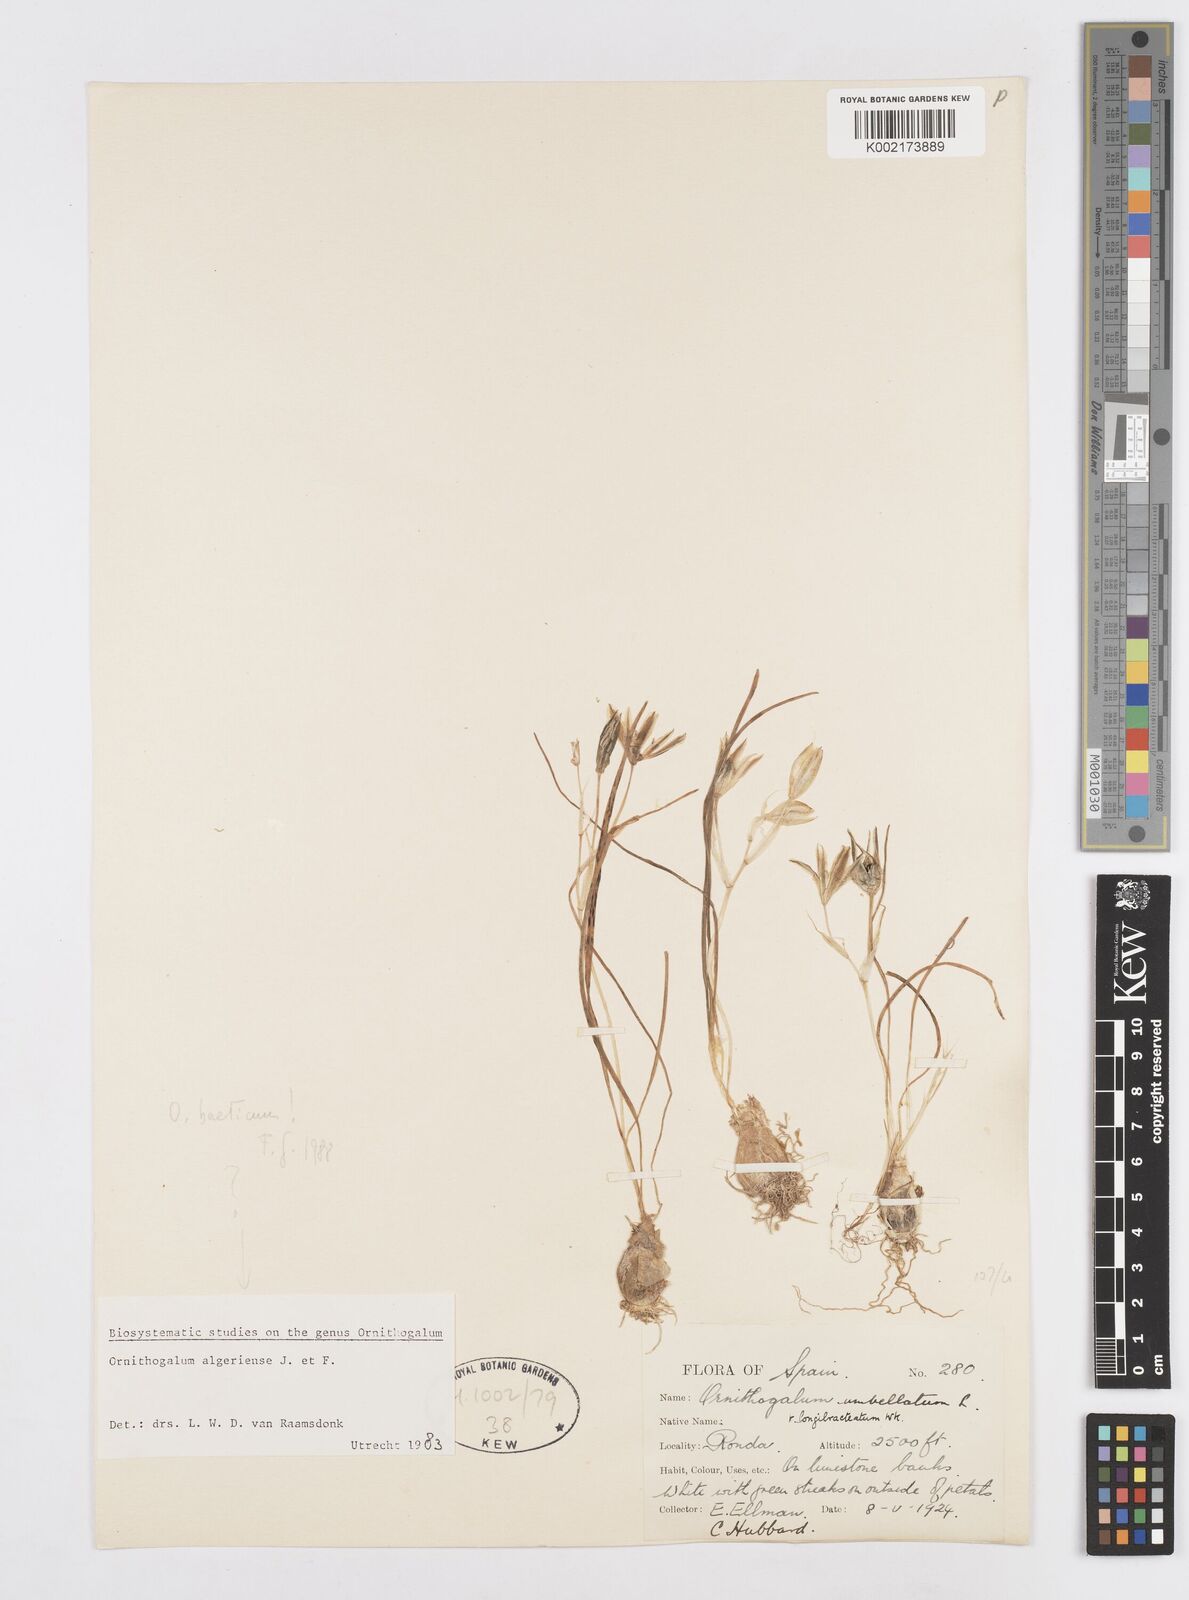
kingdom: Plantae
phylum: Tracheophyta
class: Liliopsida
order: Asparagales
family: Asparagaceae
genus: Ornithogalum
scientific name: Ornithogalum orthophyllum
